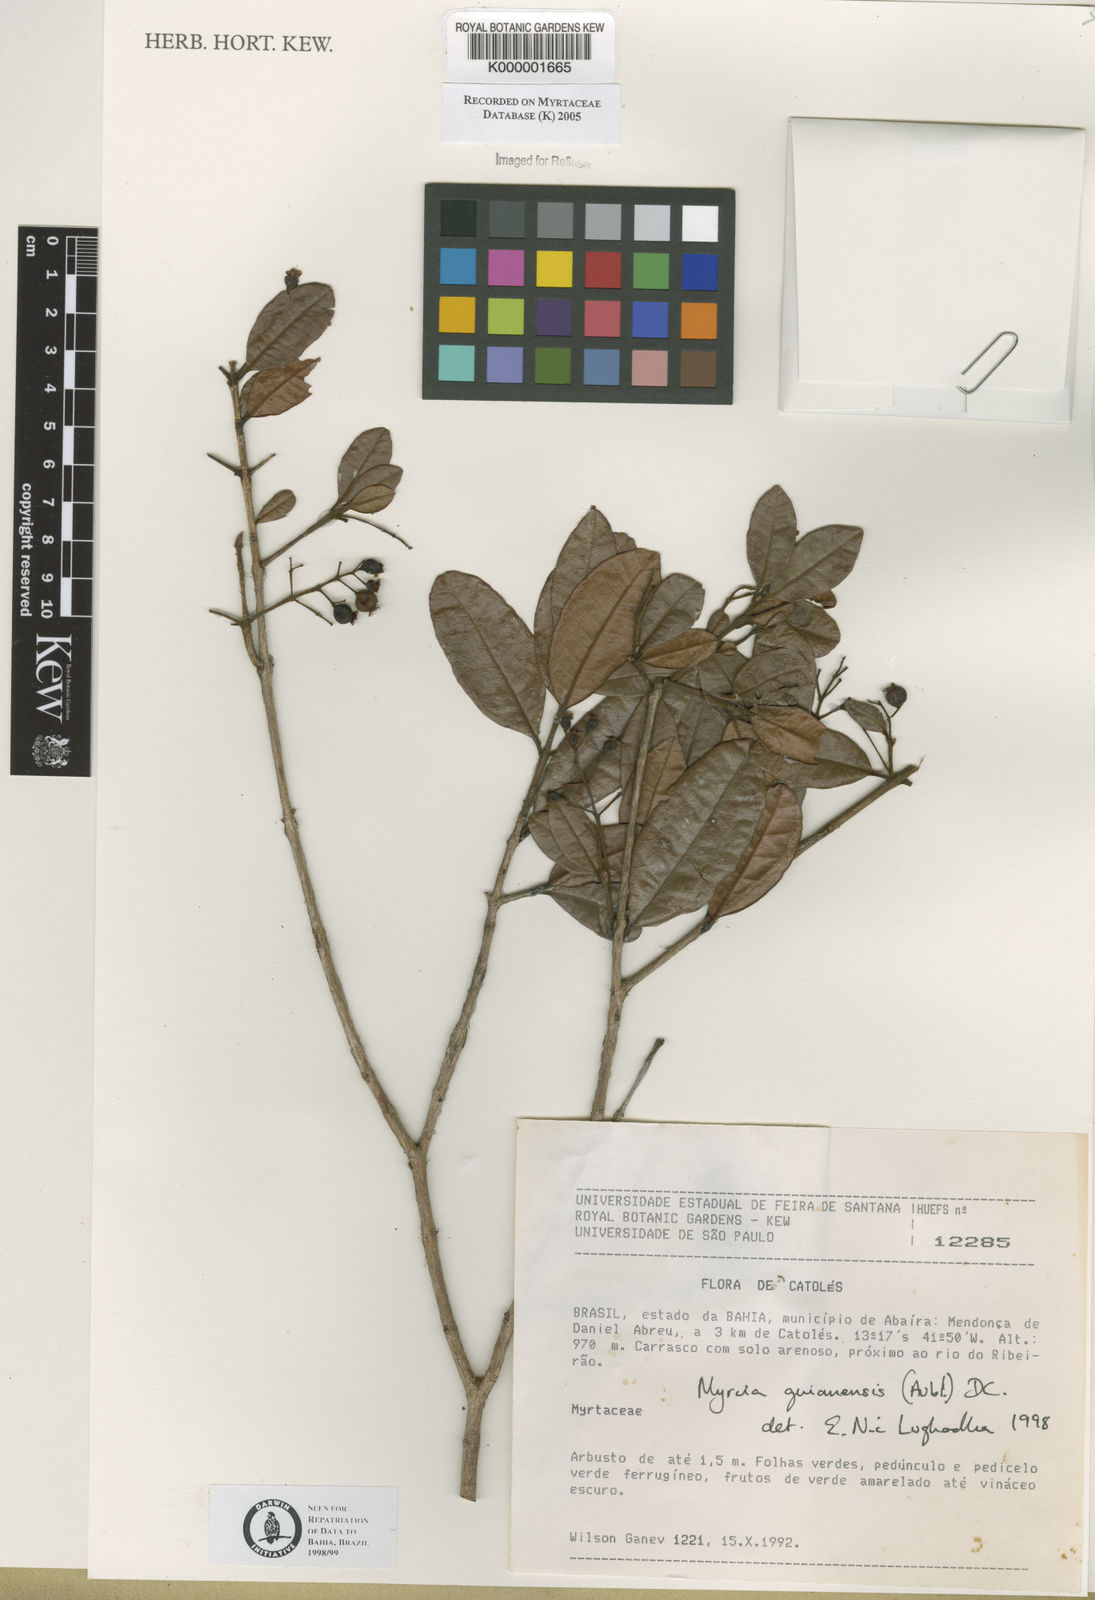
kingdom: Plantae
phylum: Tracheophyta
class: Magnoliopsida
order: Myrtales
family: Myrtaceae
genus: Myrcia
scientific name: Myrcia guianensis
